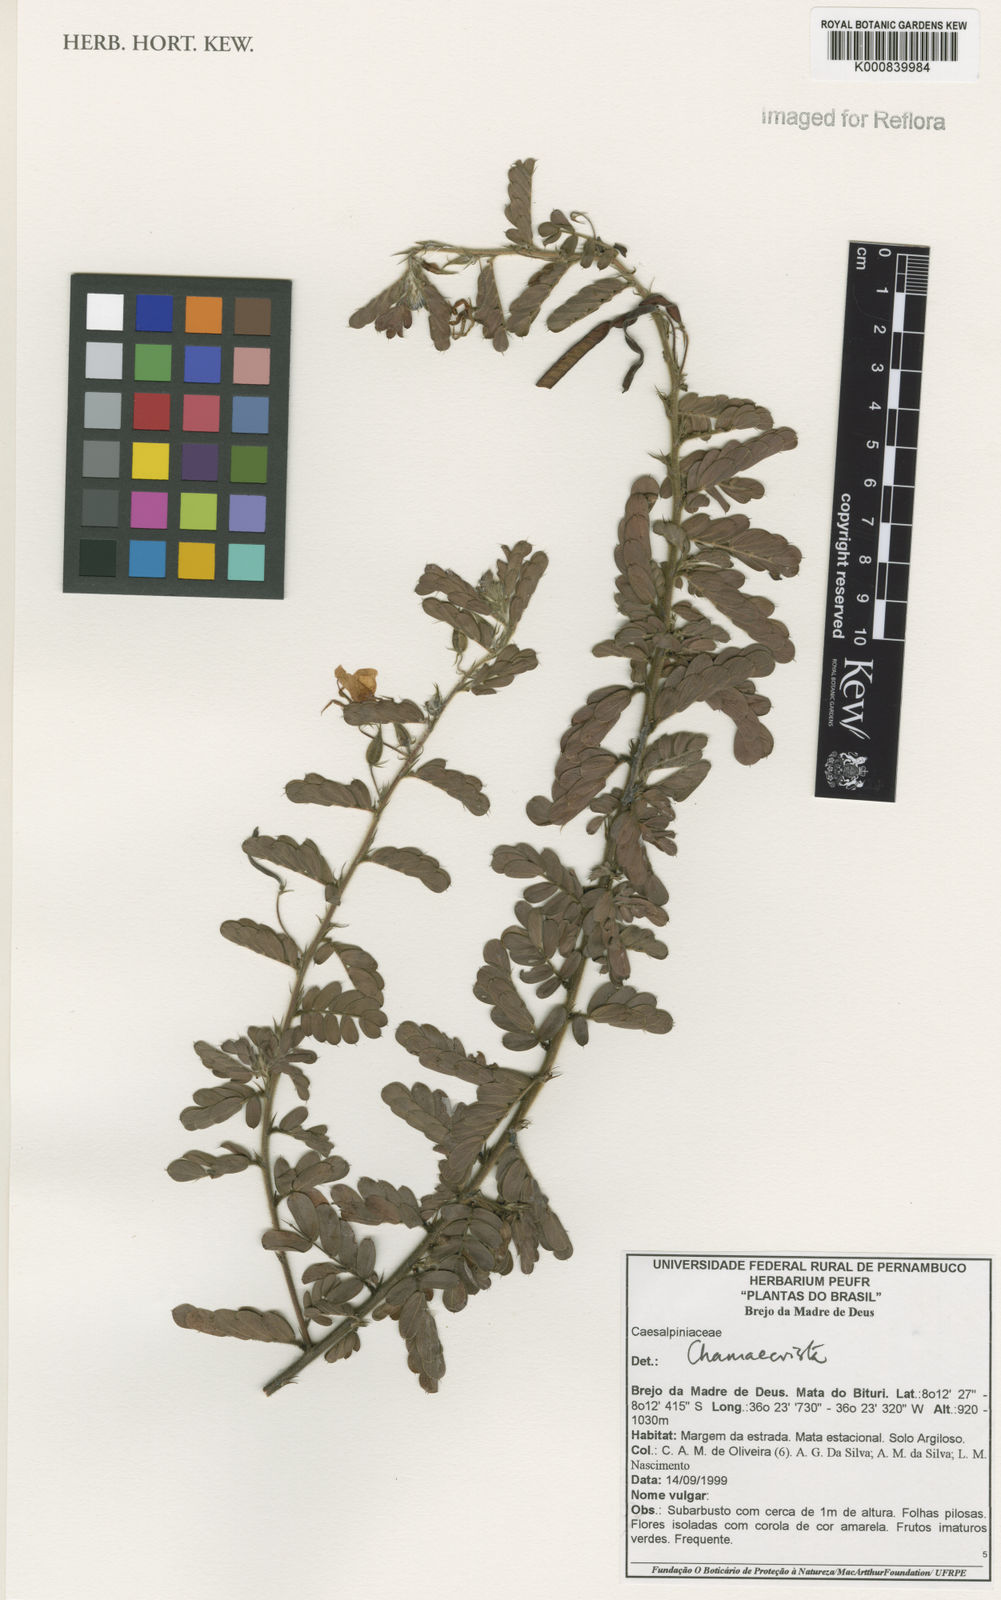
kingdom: Plantae
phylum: Tracheophyta
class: Magnoliopsida
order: Fabales
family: Fabaceae
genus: Chamaecrista
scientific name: Chamaecrista pascuorum
